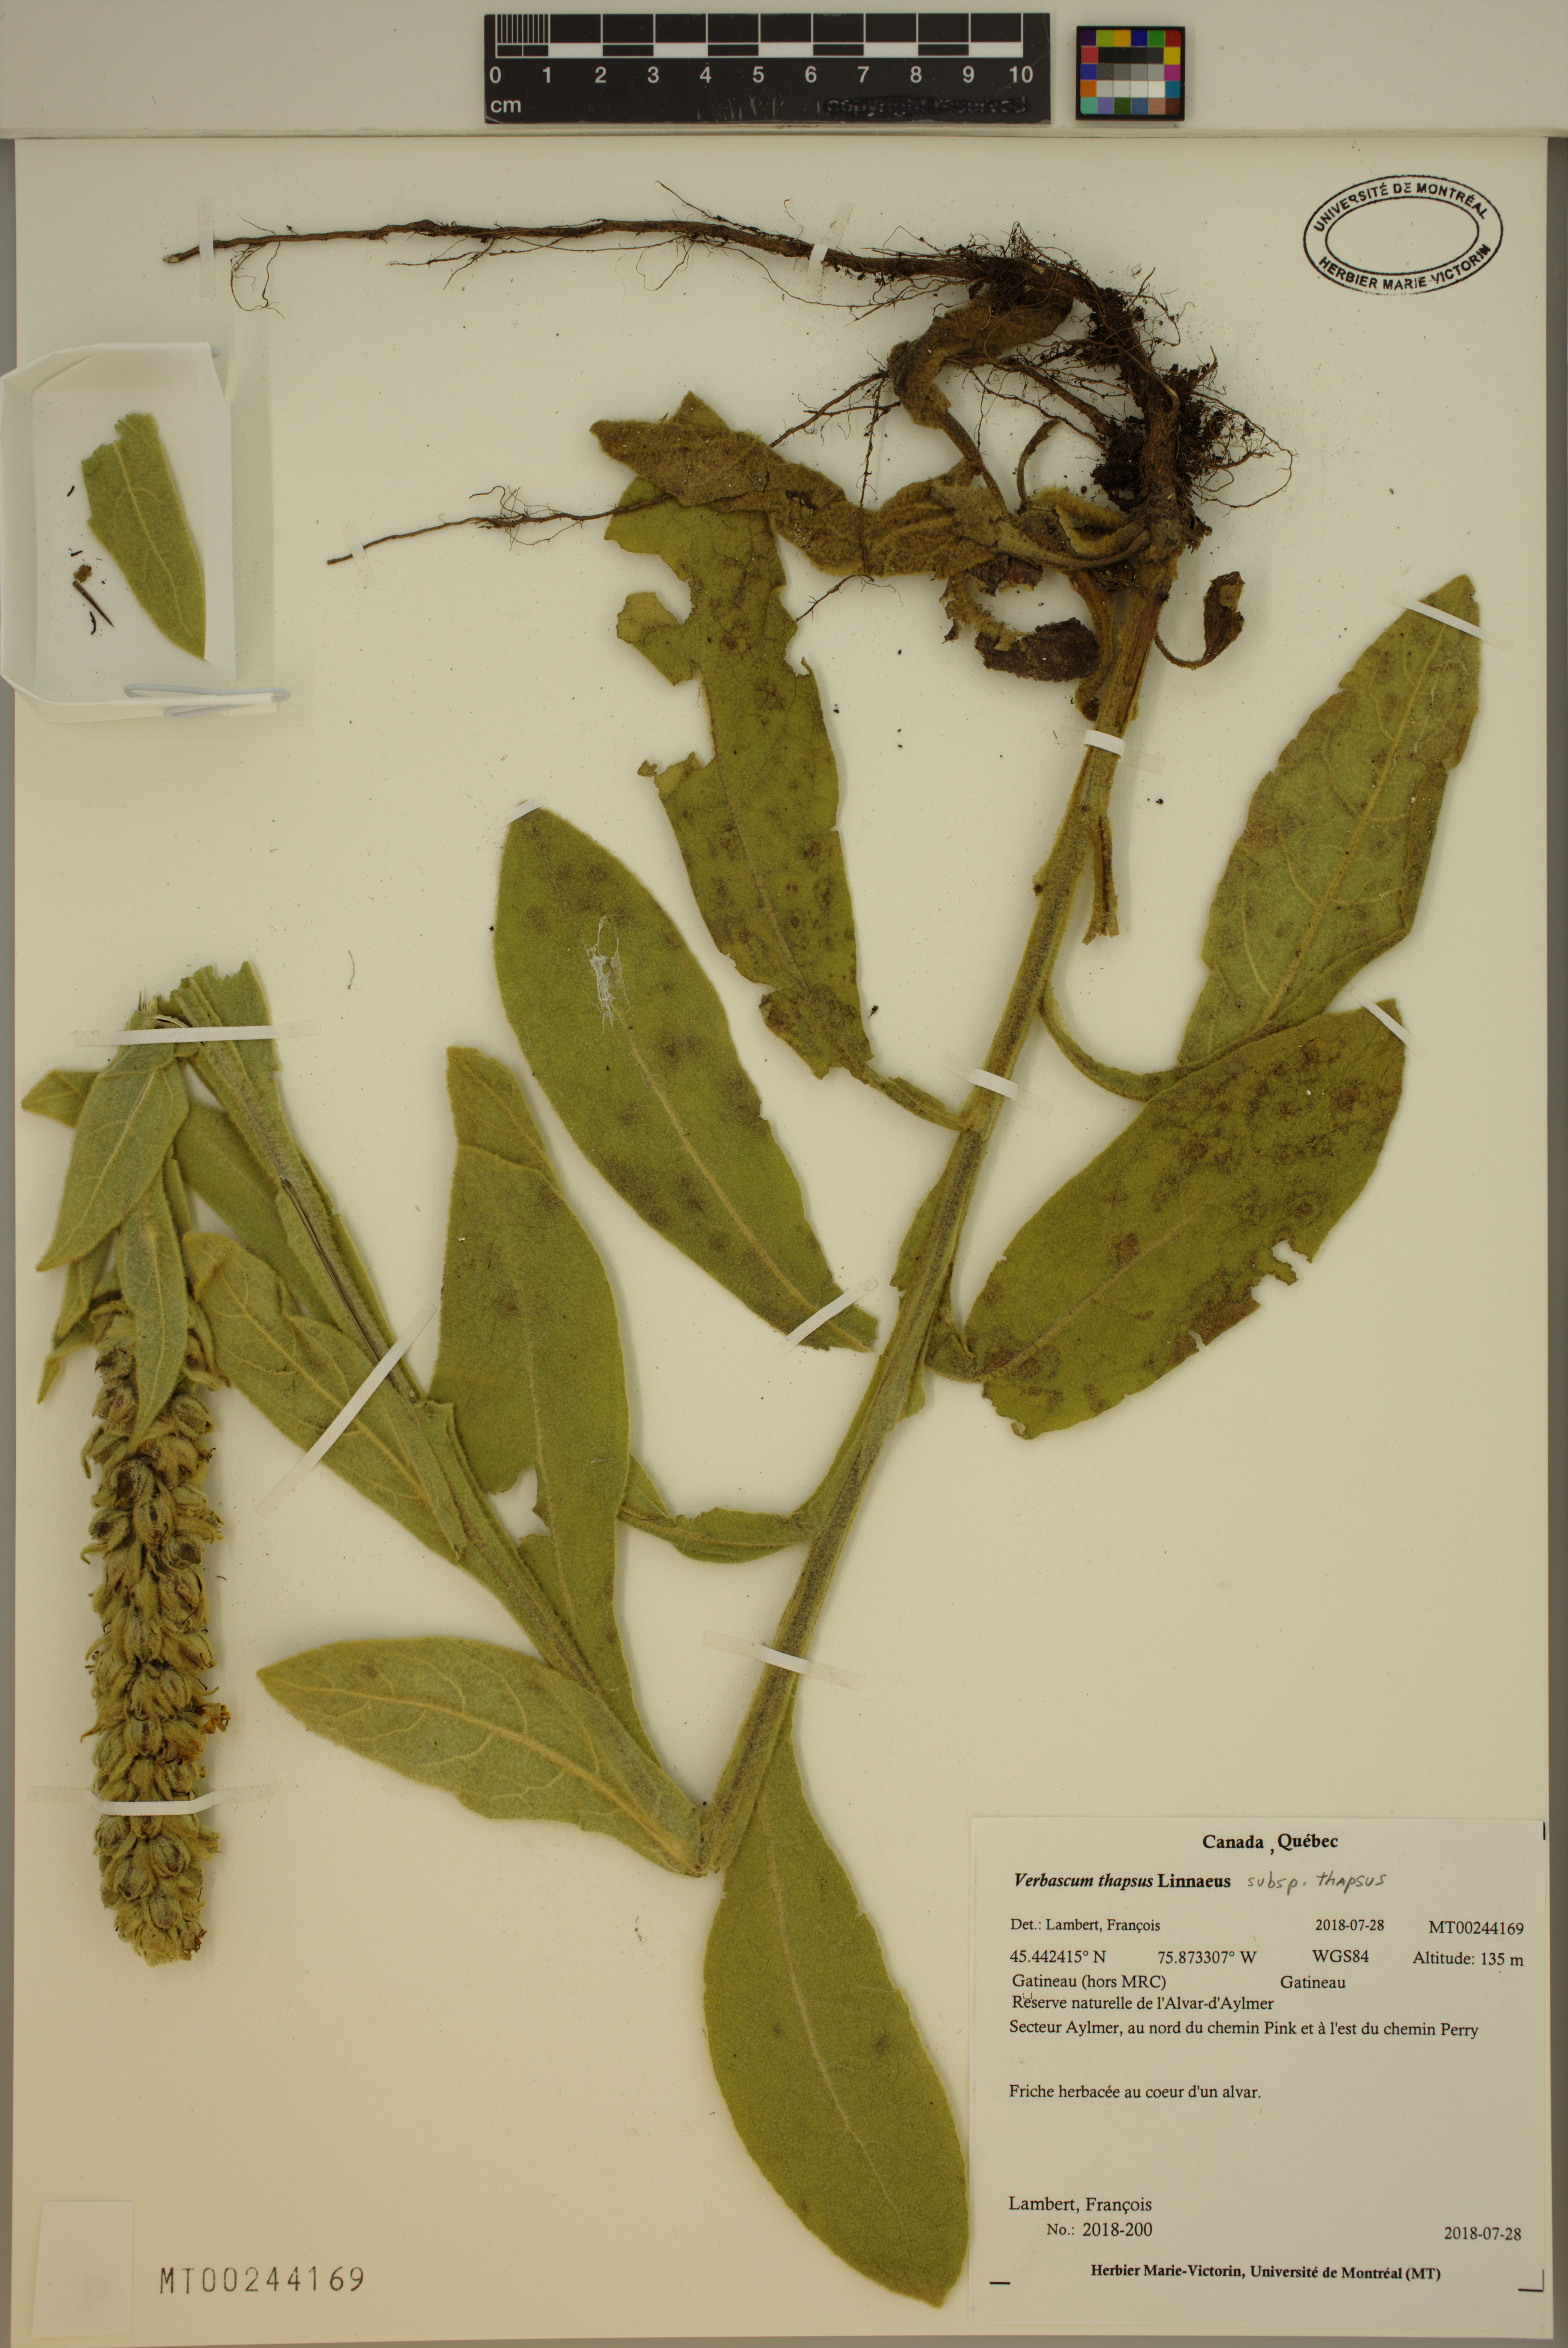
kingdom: Plantae
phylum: Tracheophyta
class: Magnoliopsida
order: Lamiales
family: Scrophulariaceae
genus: Verbascum
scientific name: Verbascum thapsus
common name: Common mullein
